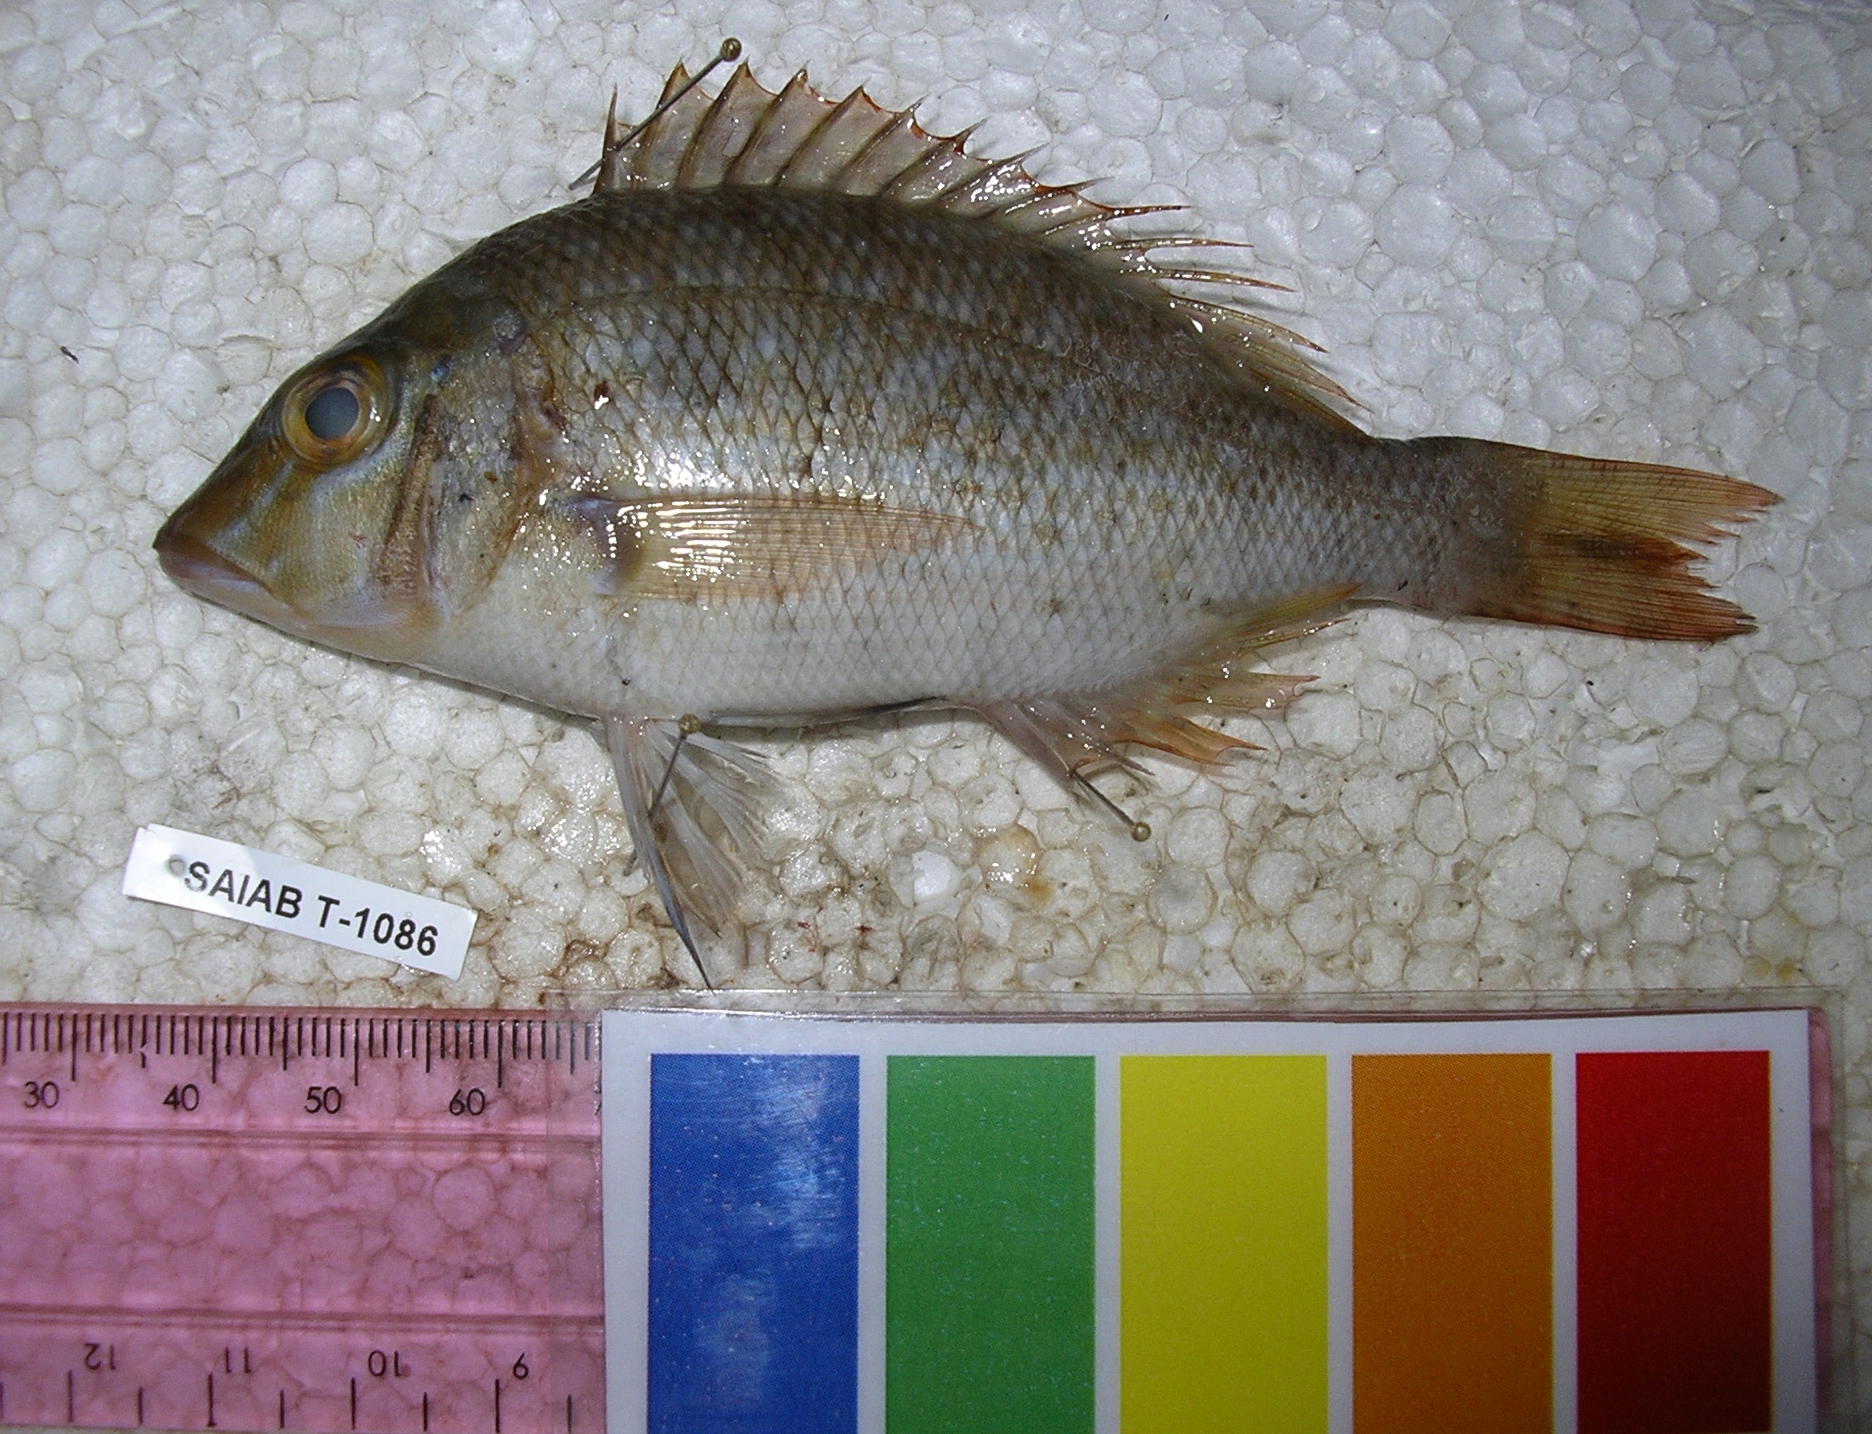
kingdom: Animalia
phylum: Chordata
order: Perciformes
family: Lethrinidae
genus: Lethrinus
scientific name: Lethrinus nebulosus
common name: Spangled emperor
